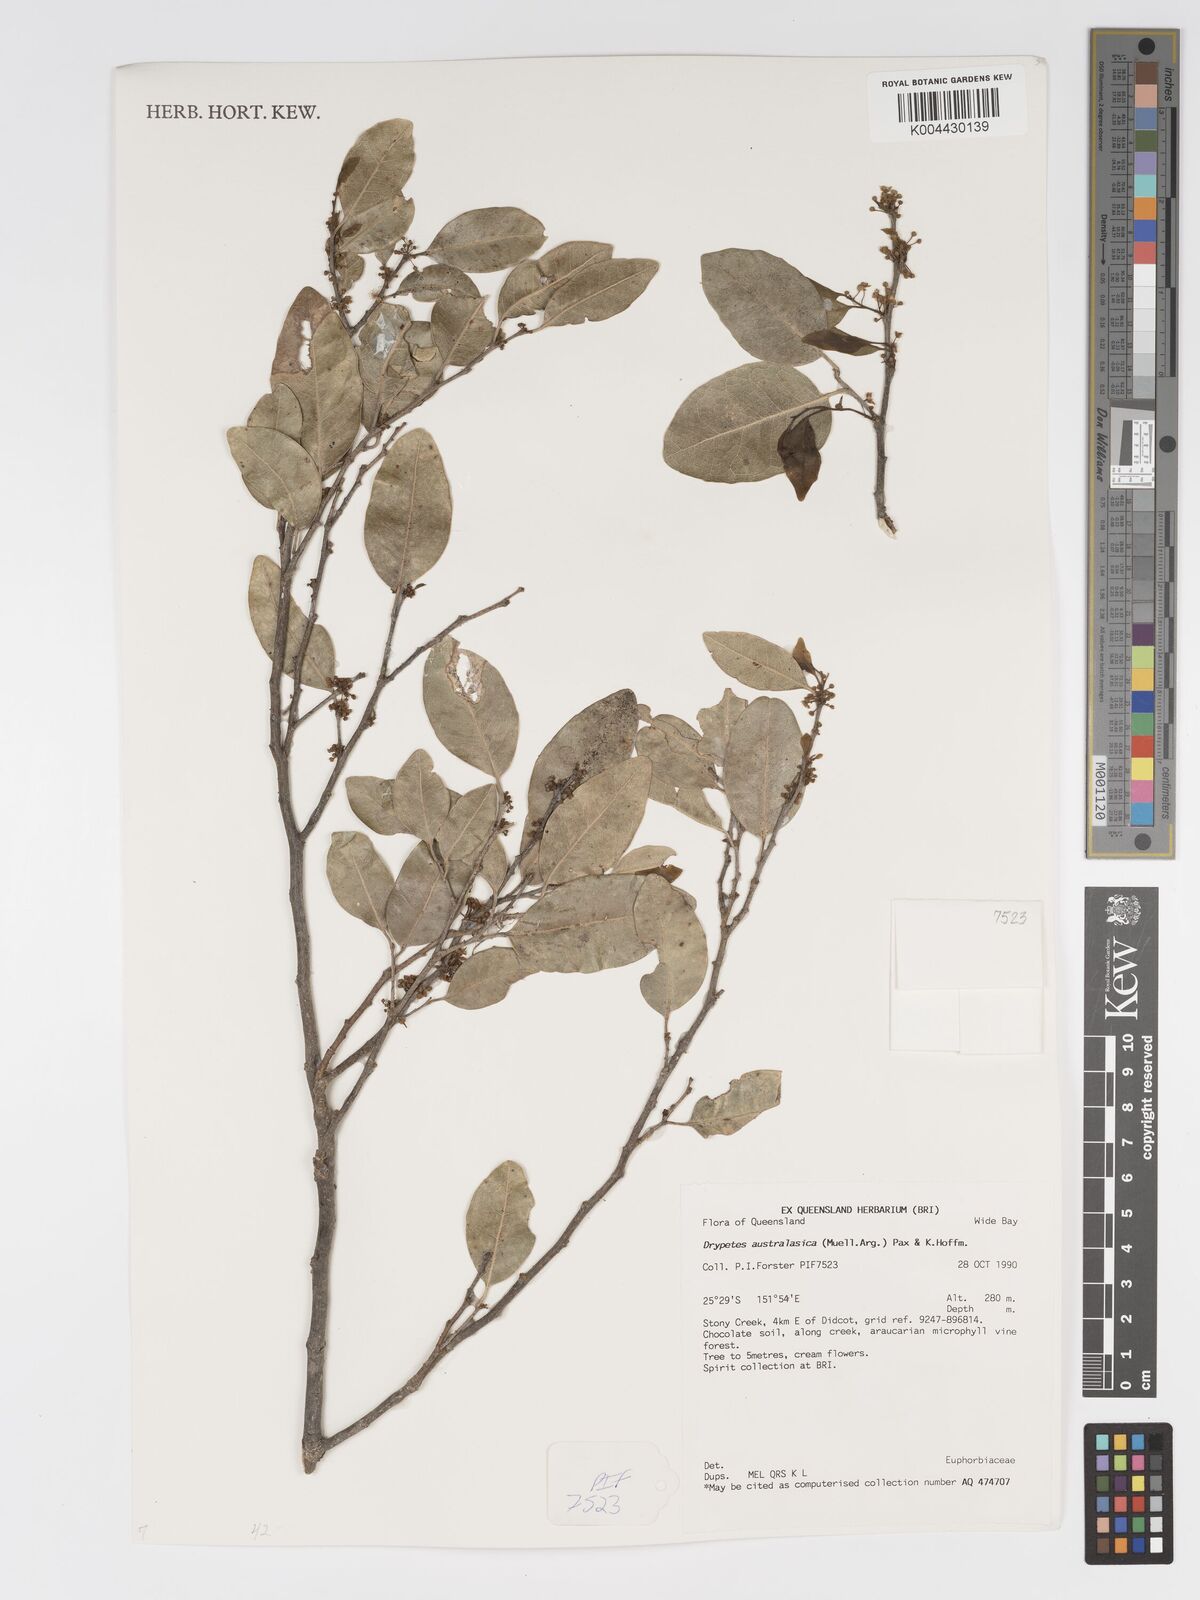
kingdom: Plantae
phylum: Tracheophyta
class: Magnoliopsida
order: Malpighiales
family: Putranjivaceae
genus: Drypetes
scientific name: Drypetes deplanchei
